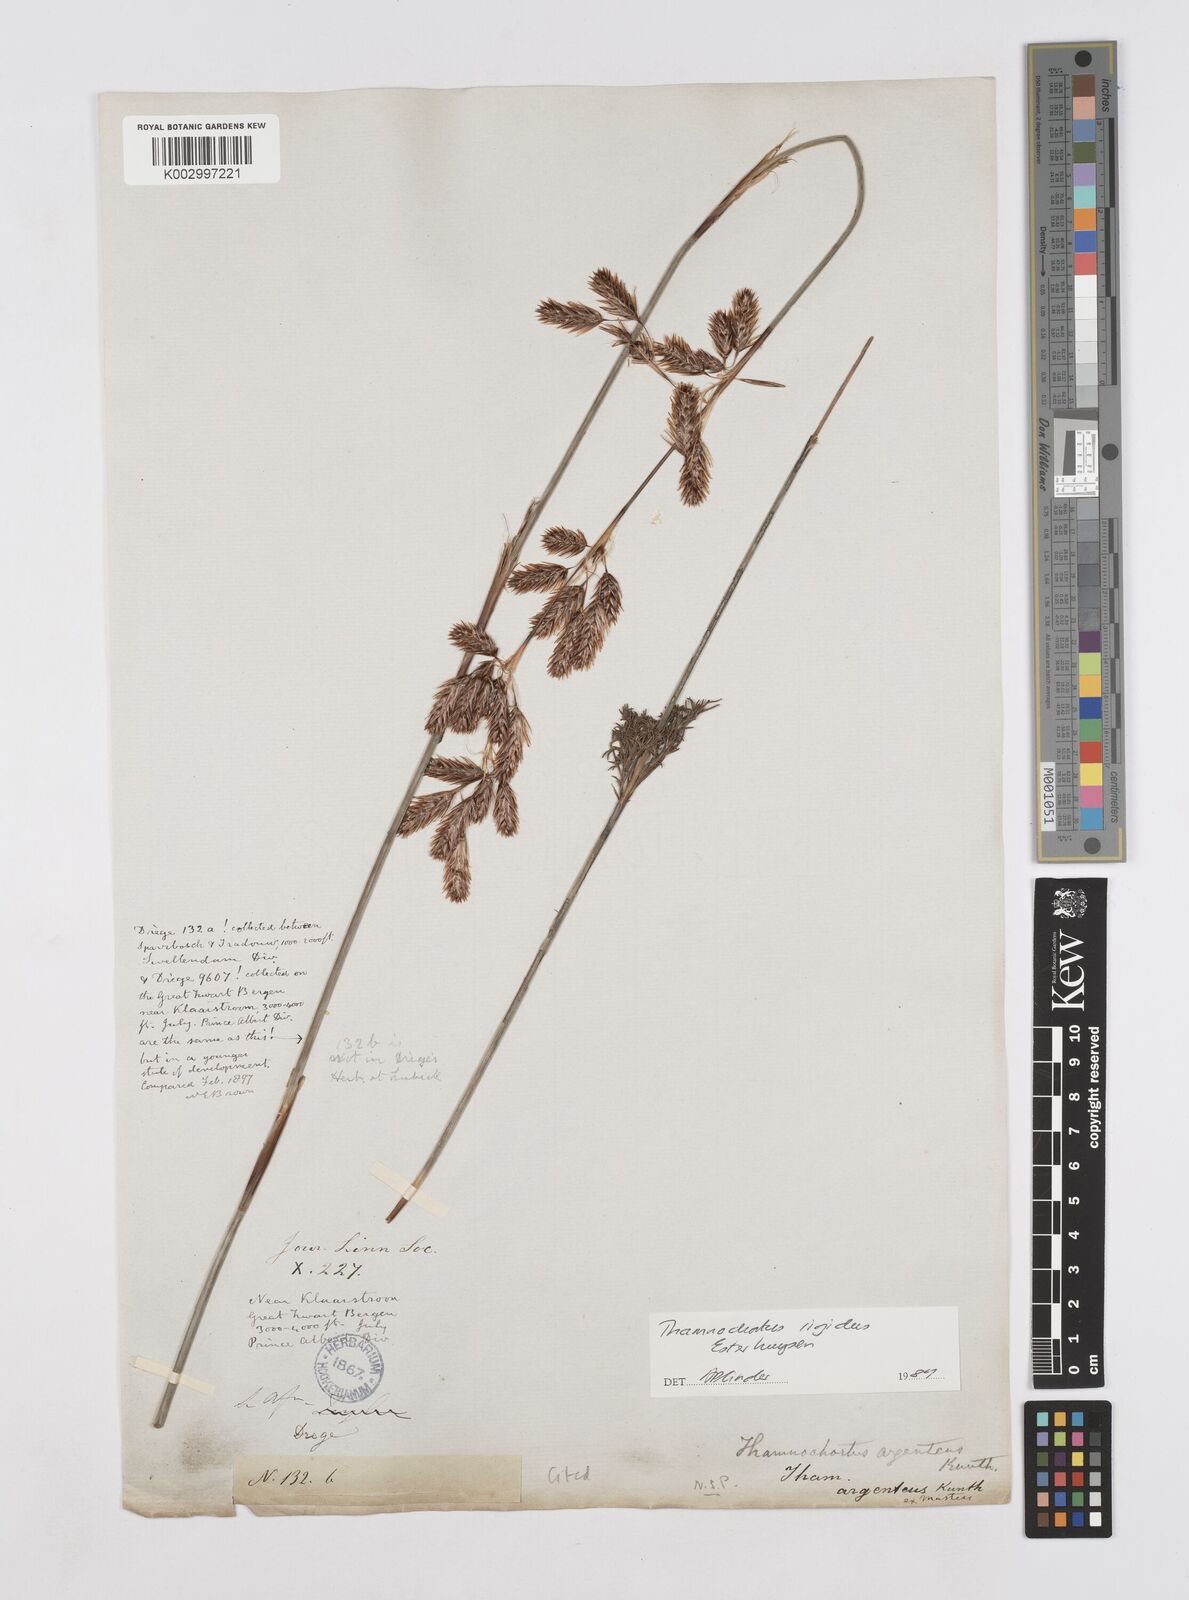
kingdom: Plantae
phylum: Tracheophyta
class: Liliopsida
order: Poales
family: Restionaceae
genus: Thamnochortus
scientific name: Thamnochortus rigidus
